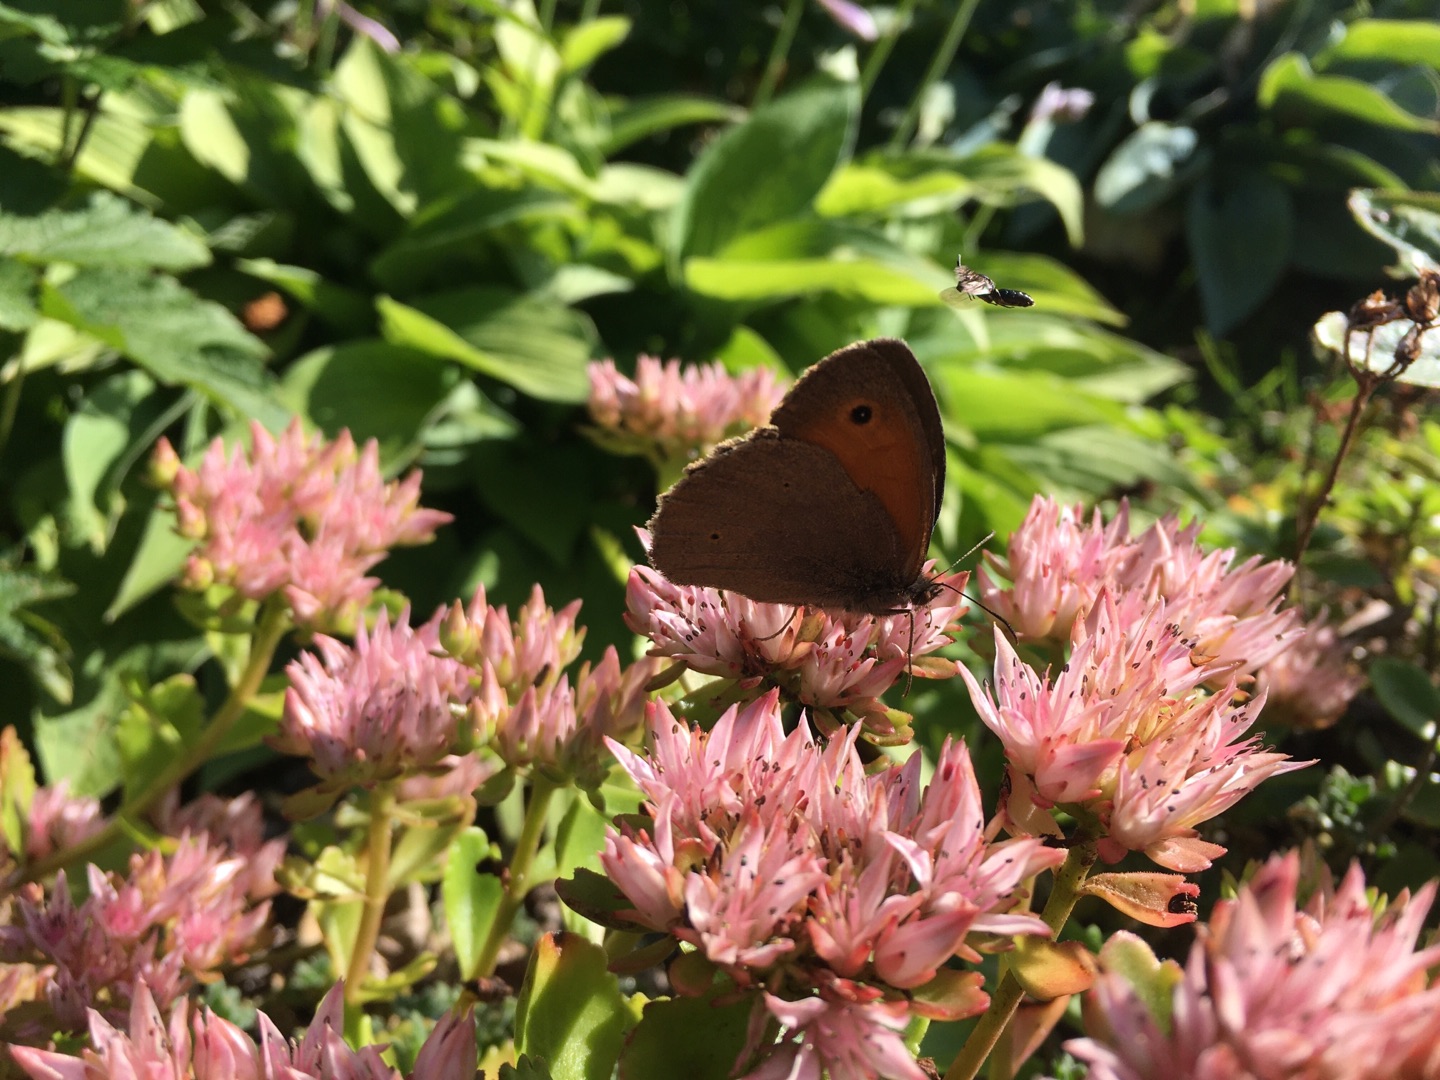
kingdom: Animalia
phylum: Arthropoda
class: Insecta
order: Lepidoptera
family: Nymphalidae
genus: Maniola
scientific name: Maniola jurtina
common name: Græsrandøje
